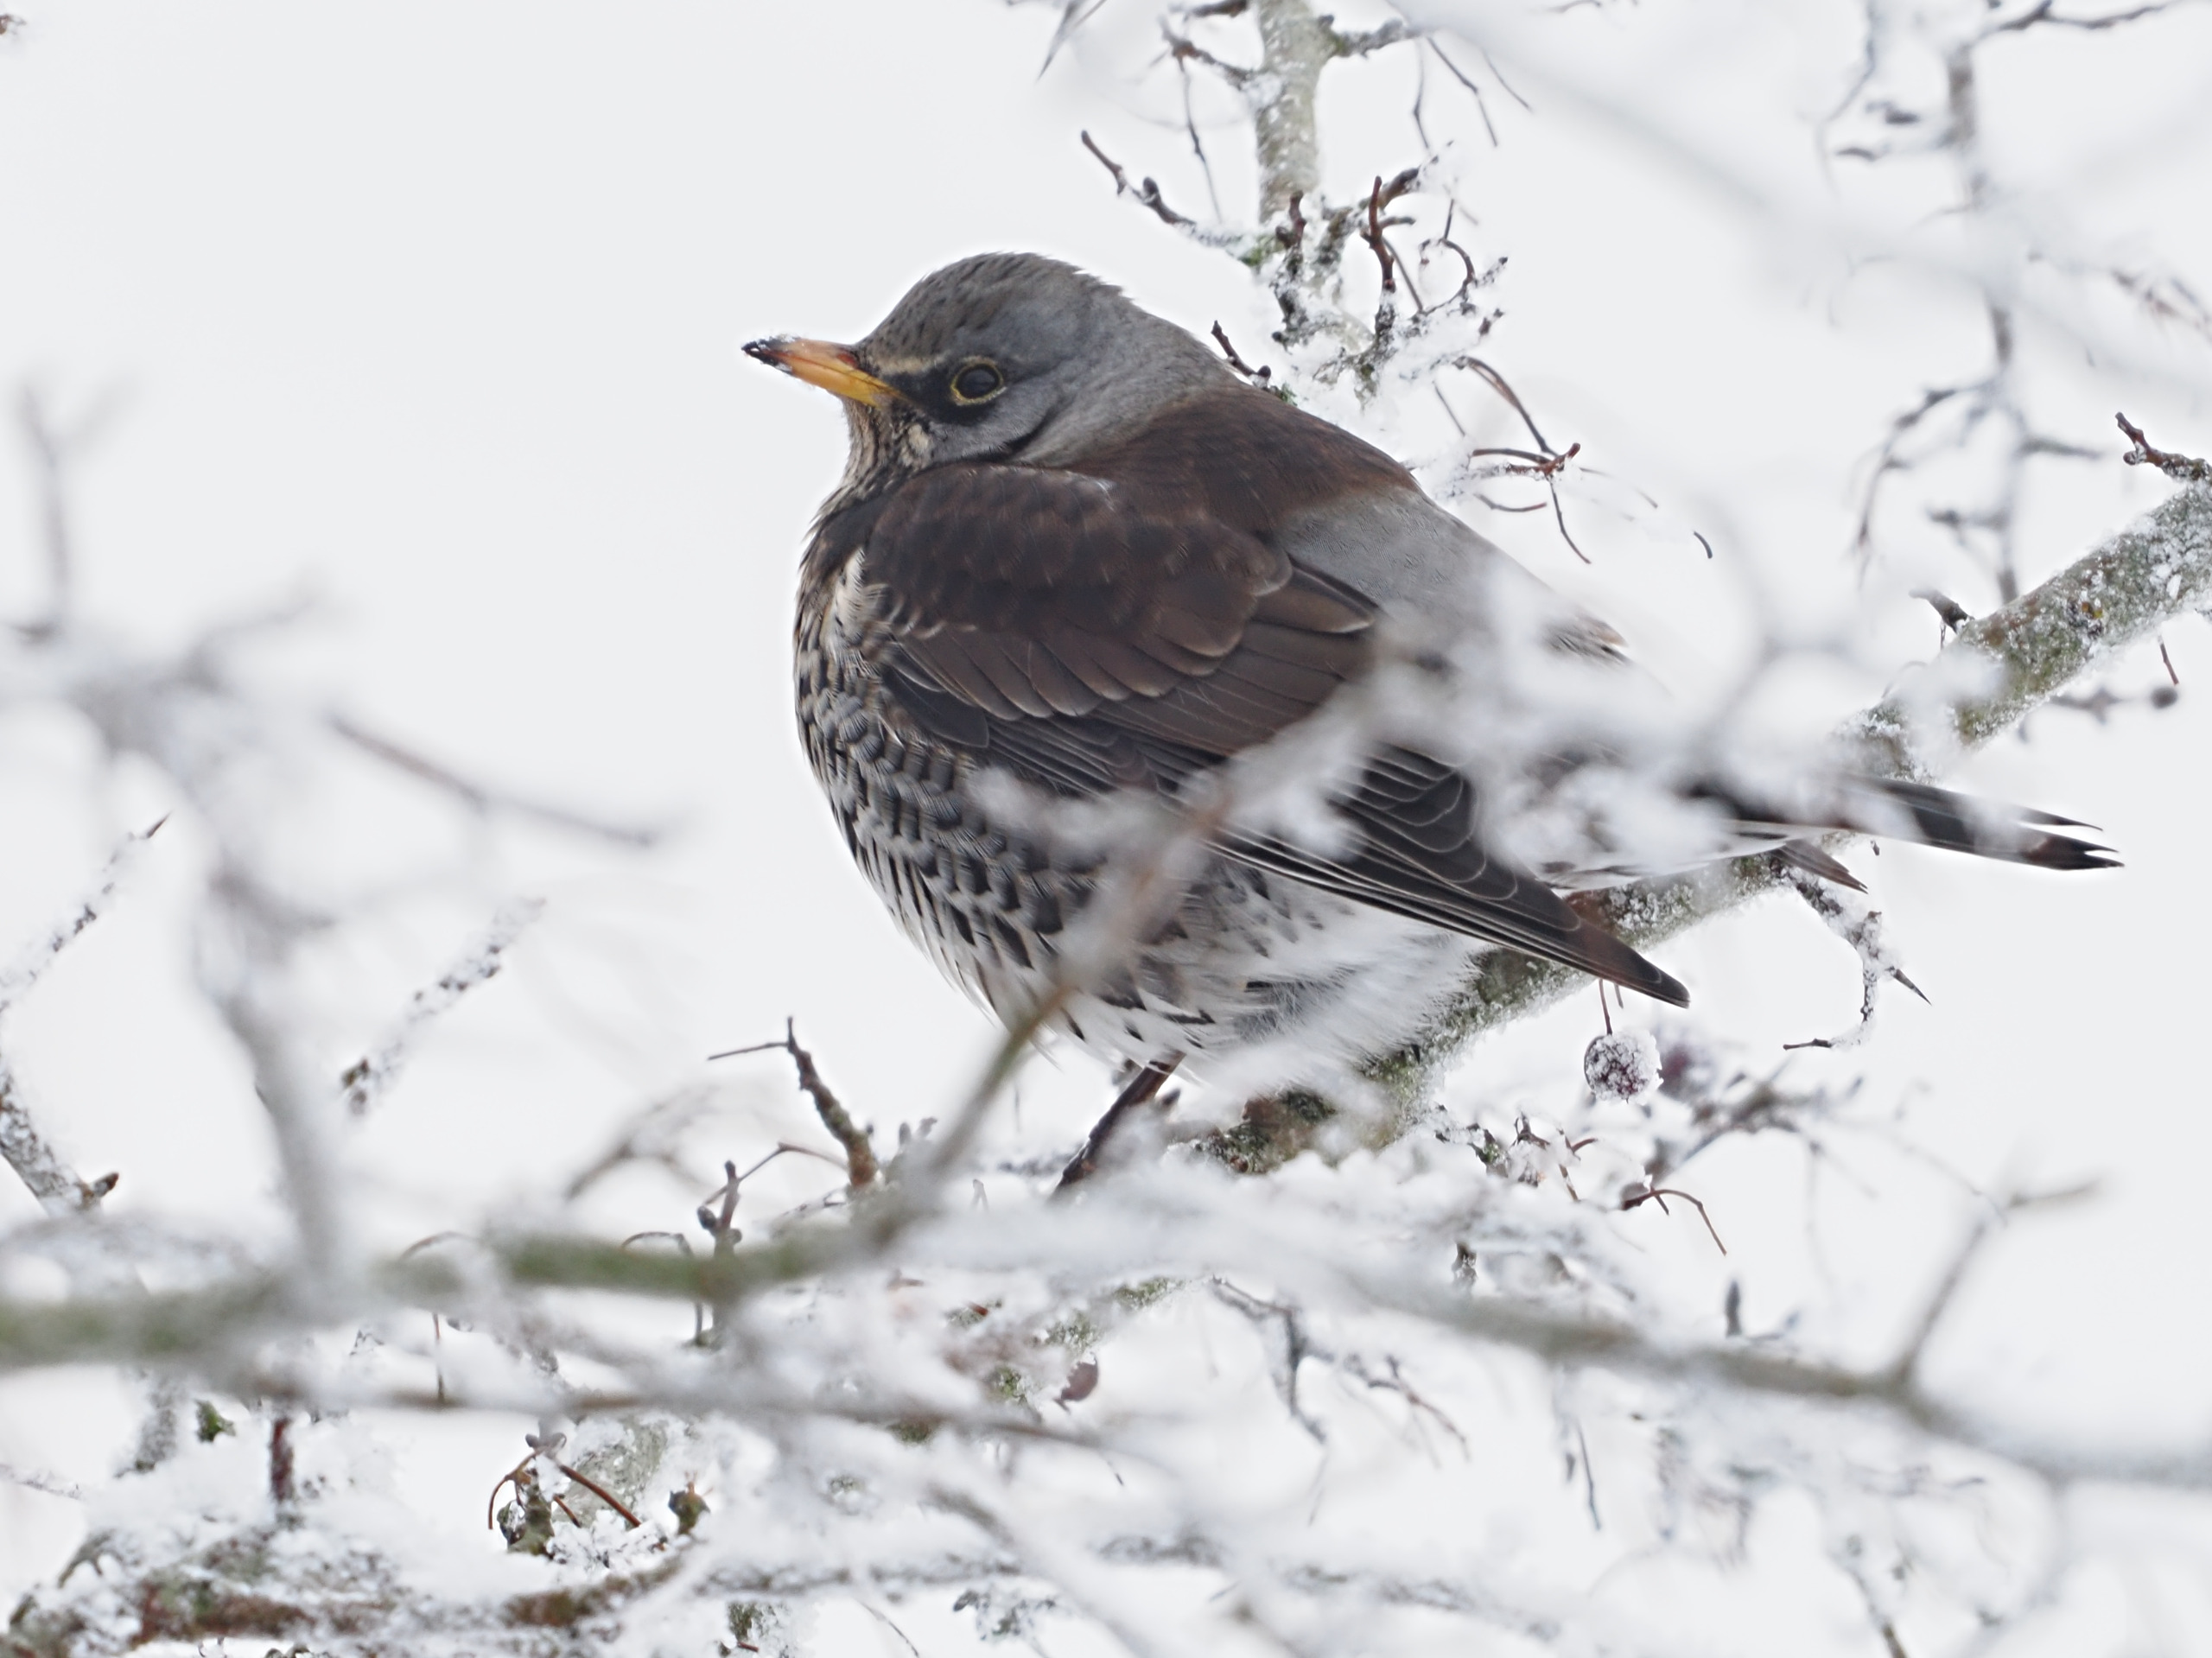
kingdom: Animalia
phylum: Chordata
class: Aves
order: Passeriformes
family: Turdidae
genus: Turdus
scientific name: Turdus pilaris
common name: Sjagger
